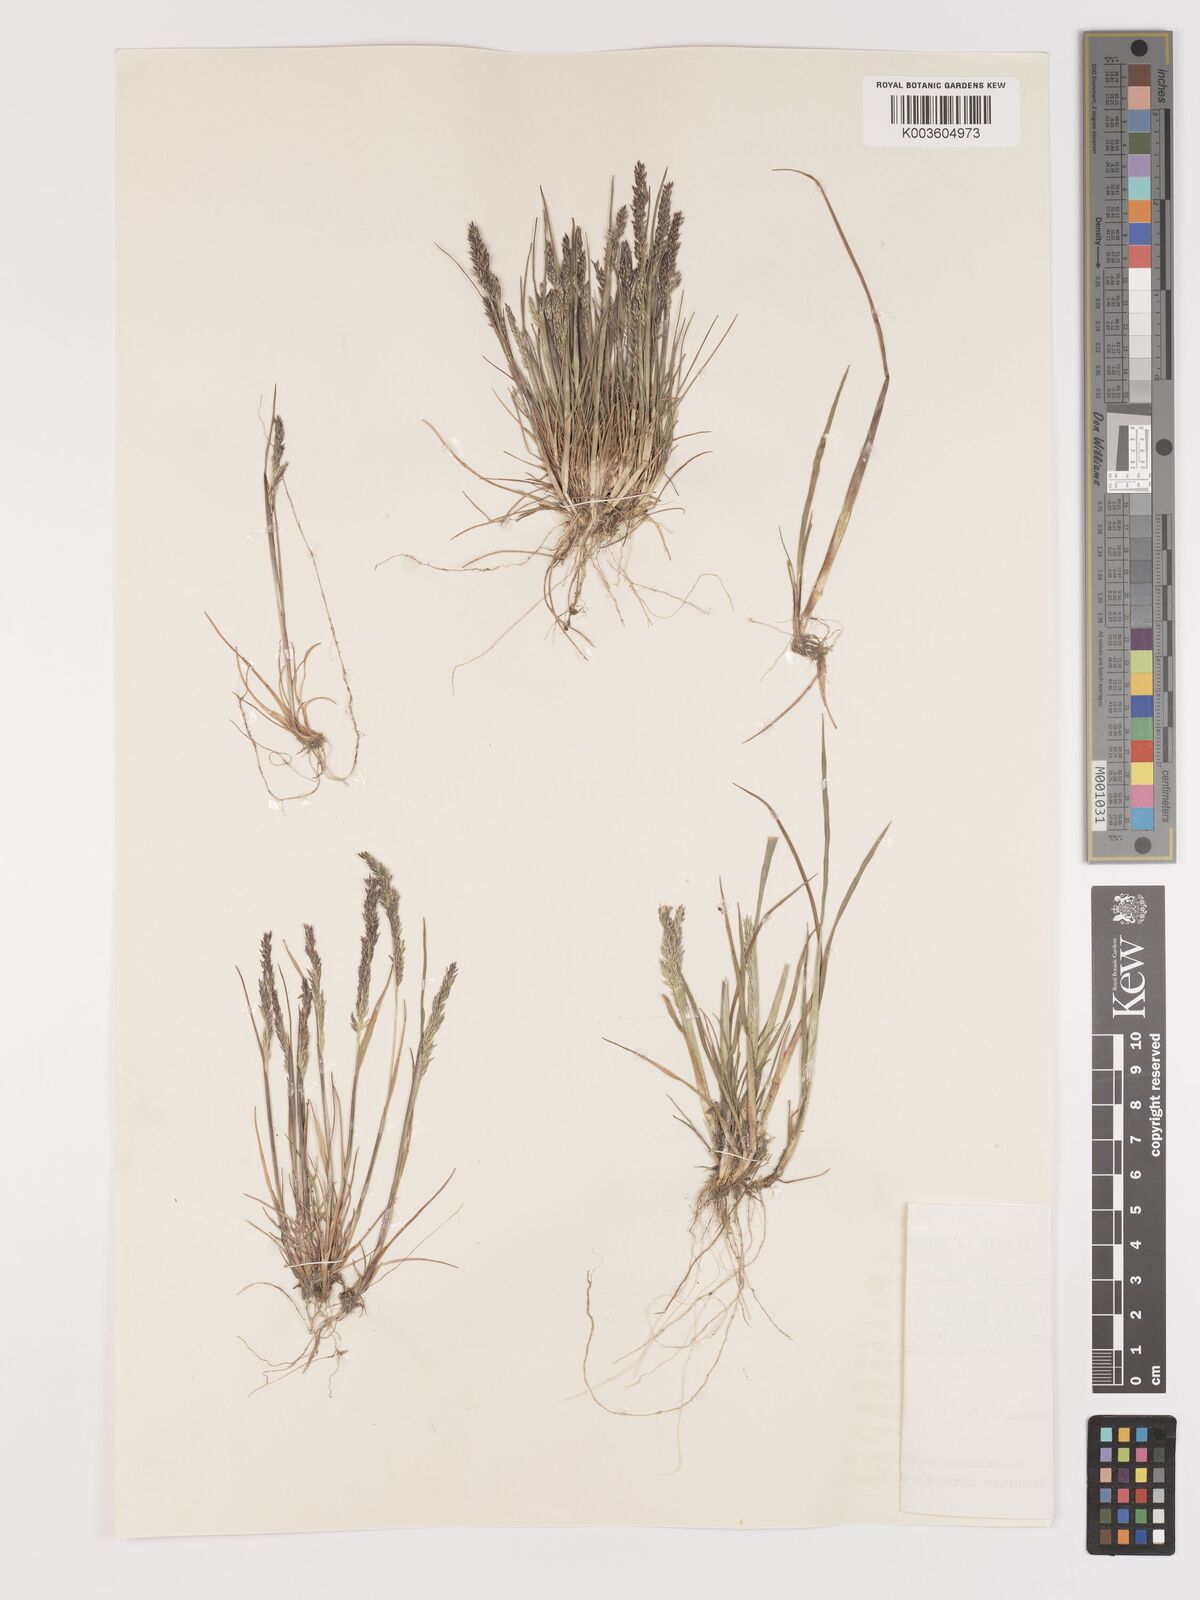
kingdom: Plantae
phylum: Tracheophyta
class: Liliopsida
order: Poales
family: Poaceae
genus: Agrostis
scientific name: Agrostis tolucensis
